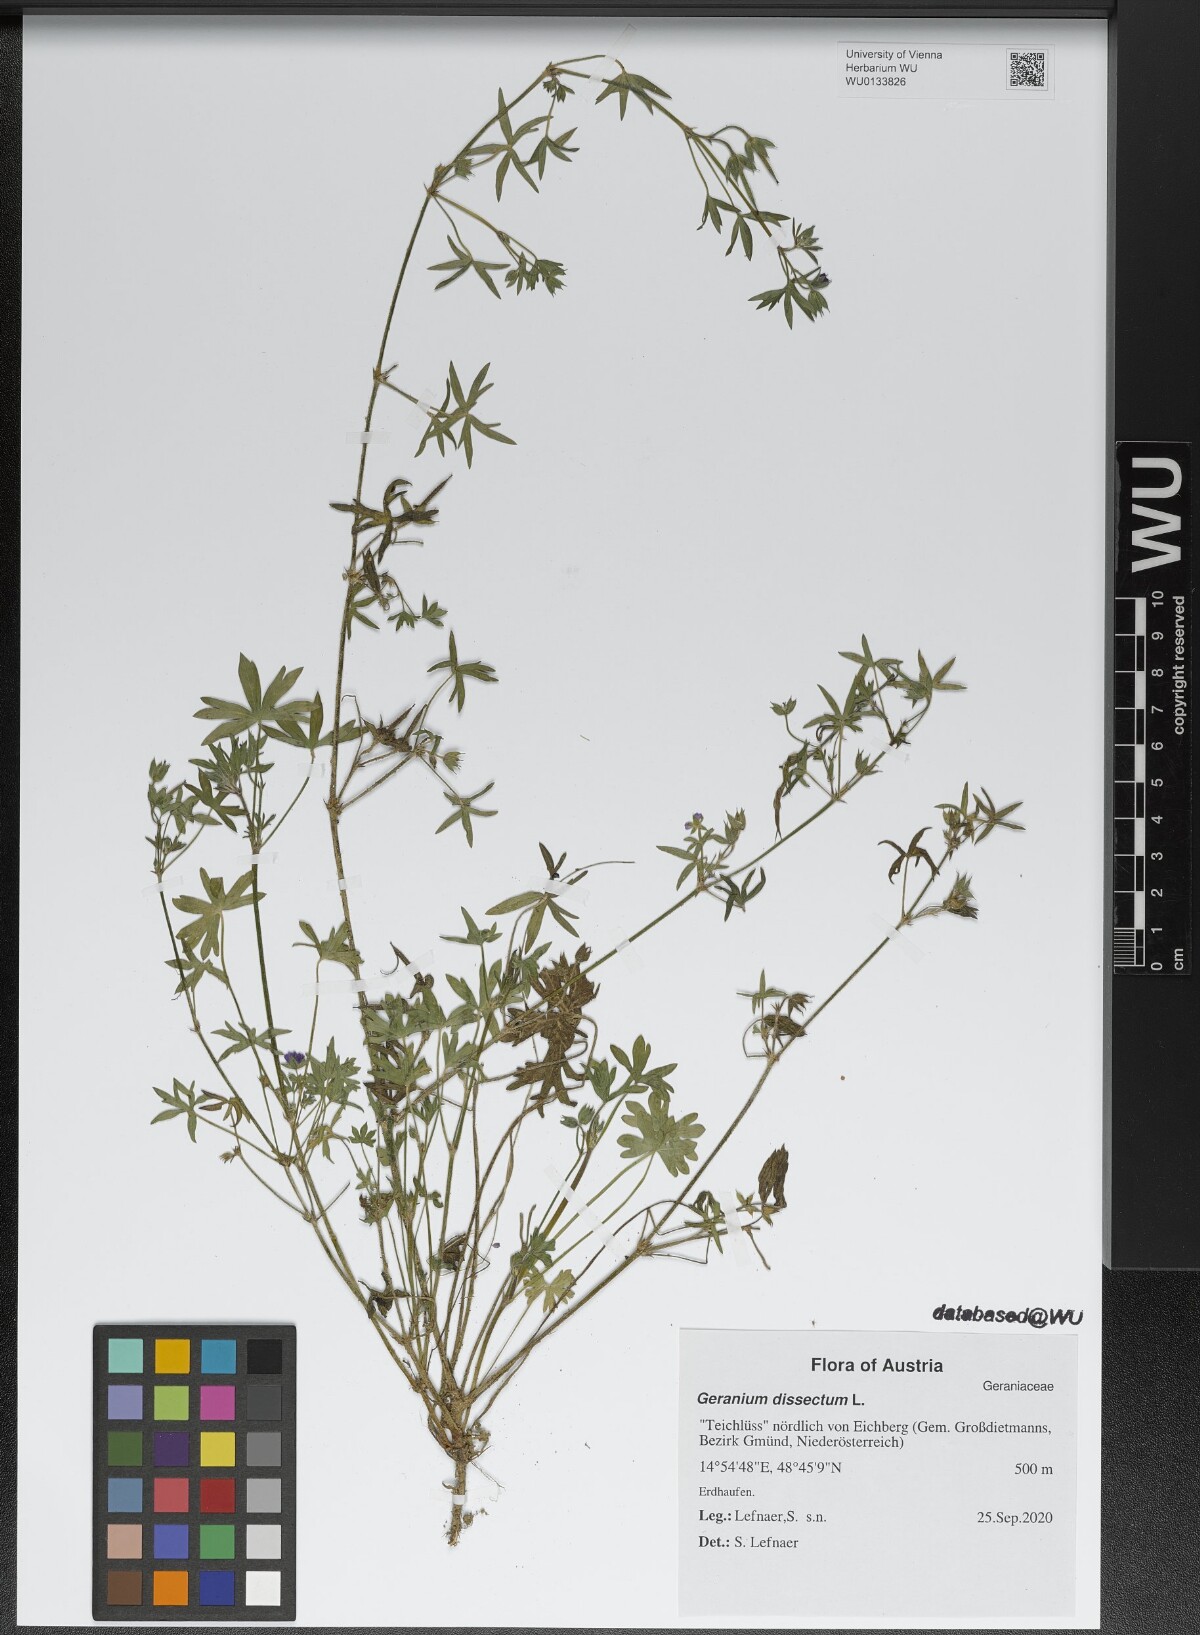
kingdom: Plantae
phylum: Tracheophyta
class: Magnoliopsida
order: Geraniales
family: Geraniaceae
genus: Geranium
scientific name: Geranium dissectum
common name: Cut-leaved crane's-bill
